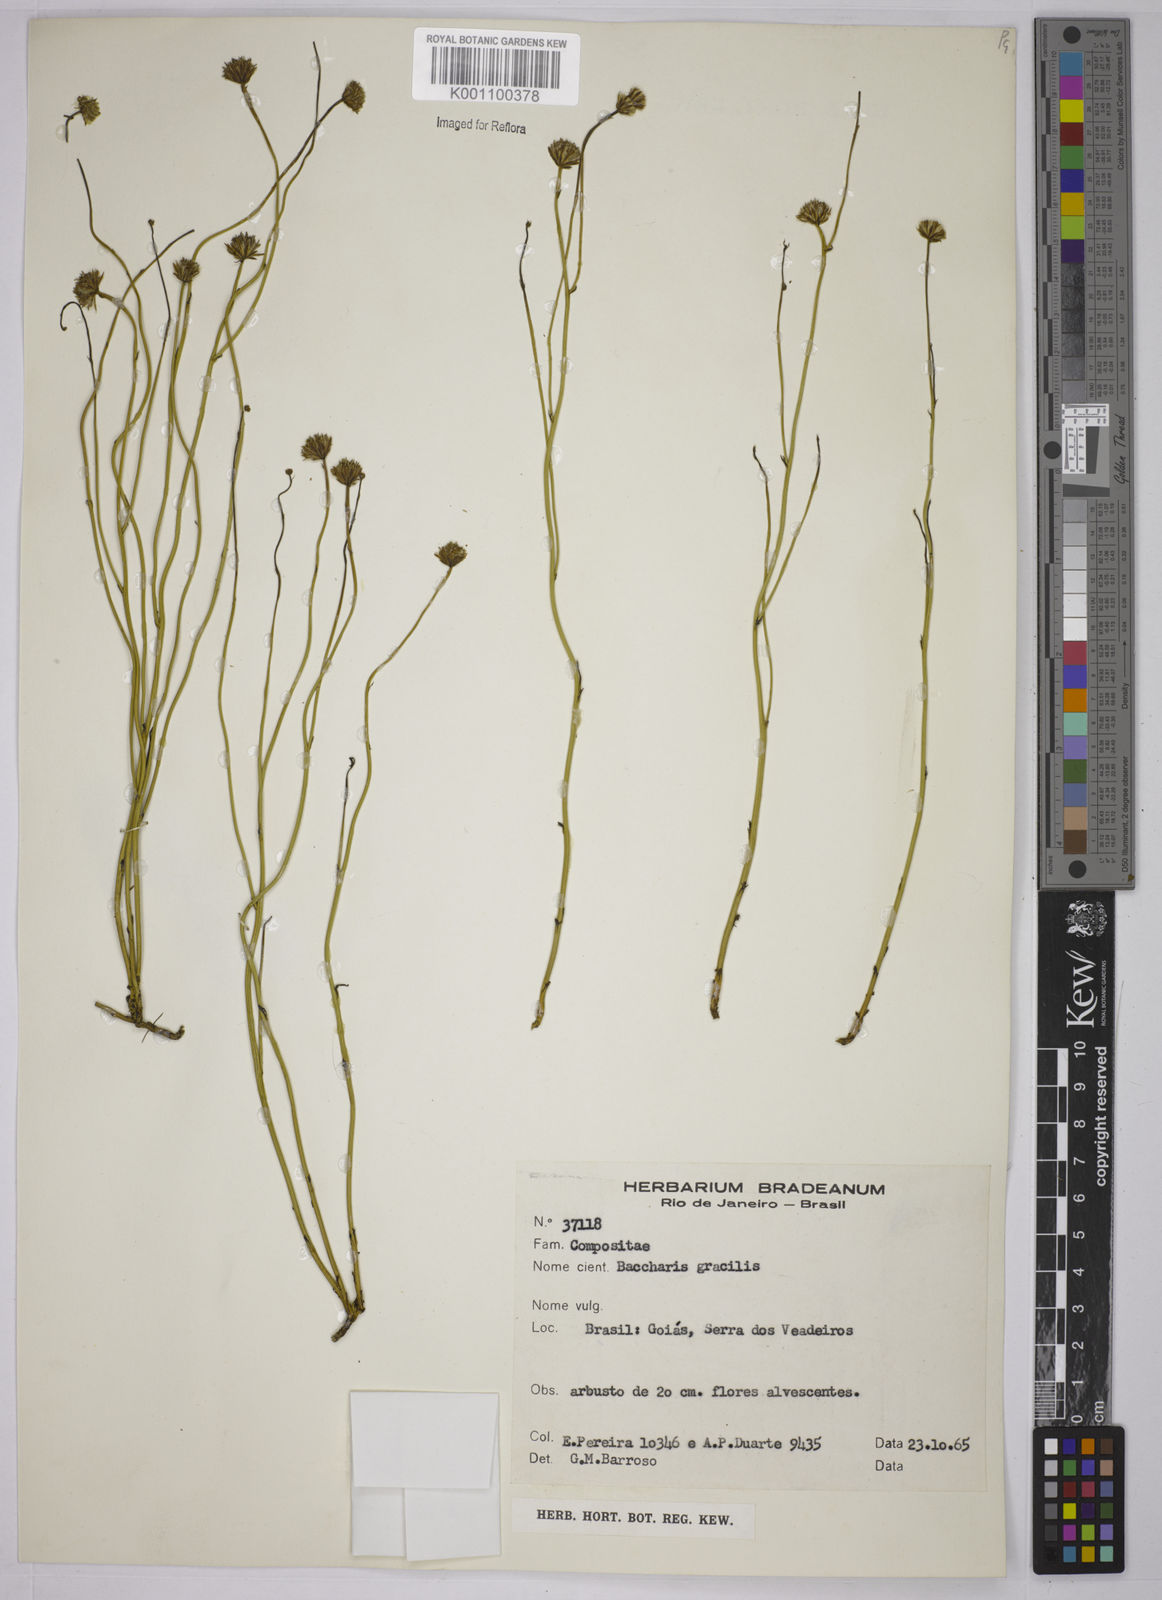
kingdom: Plantae
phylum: Tracheophyta
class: Magnoliopsida
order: Asterales
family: Asteraceae
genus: Baccharis
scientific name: Baccharis orbignyana
